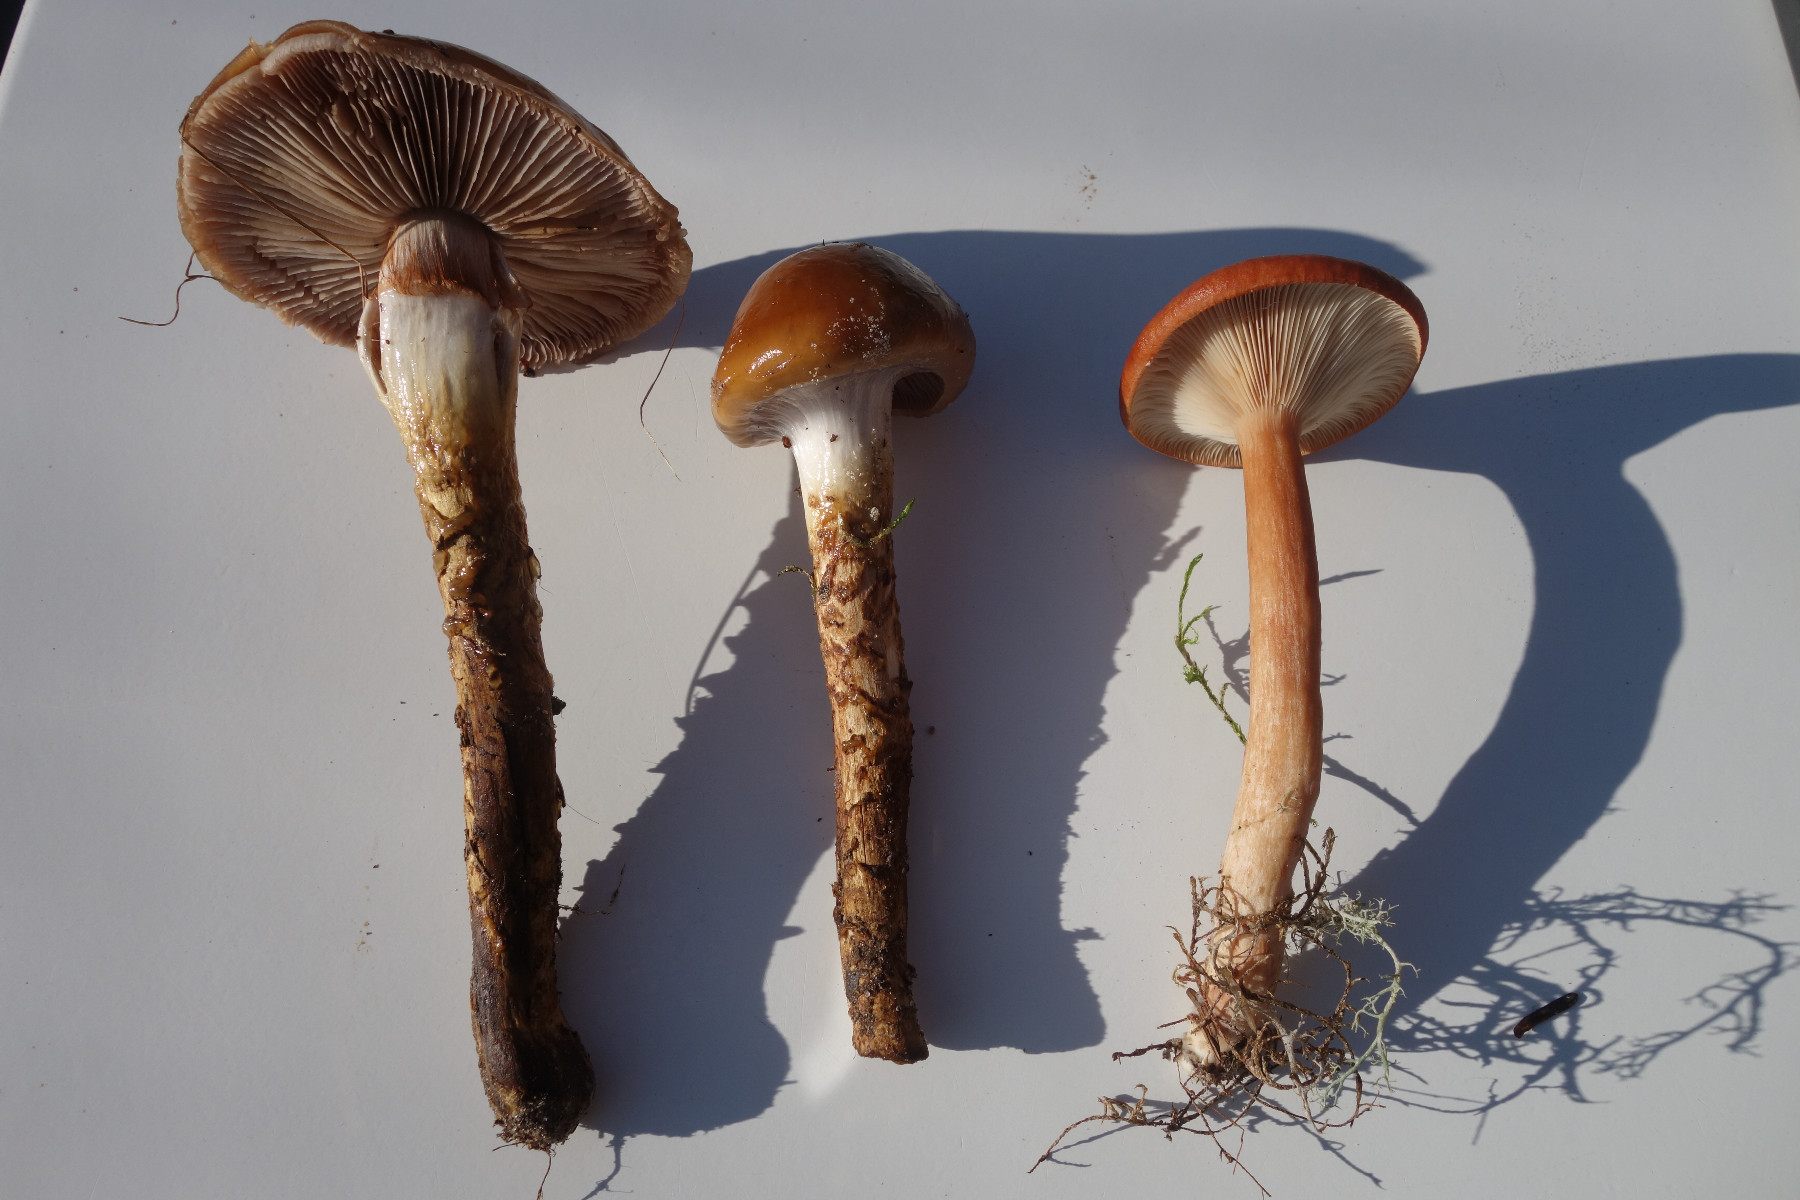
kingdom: Fungi
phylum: Basidiomycota
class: Agaricomycetes
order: Agaricales
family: Cortinariaceae
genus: Cortinarius
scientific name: Cortinarius trivialis
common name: brunslimet slørhat
